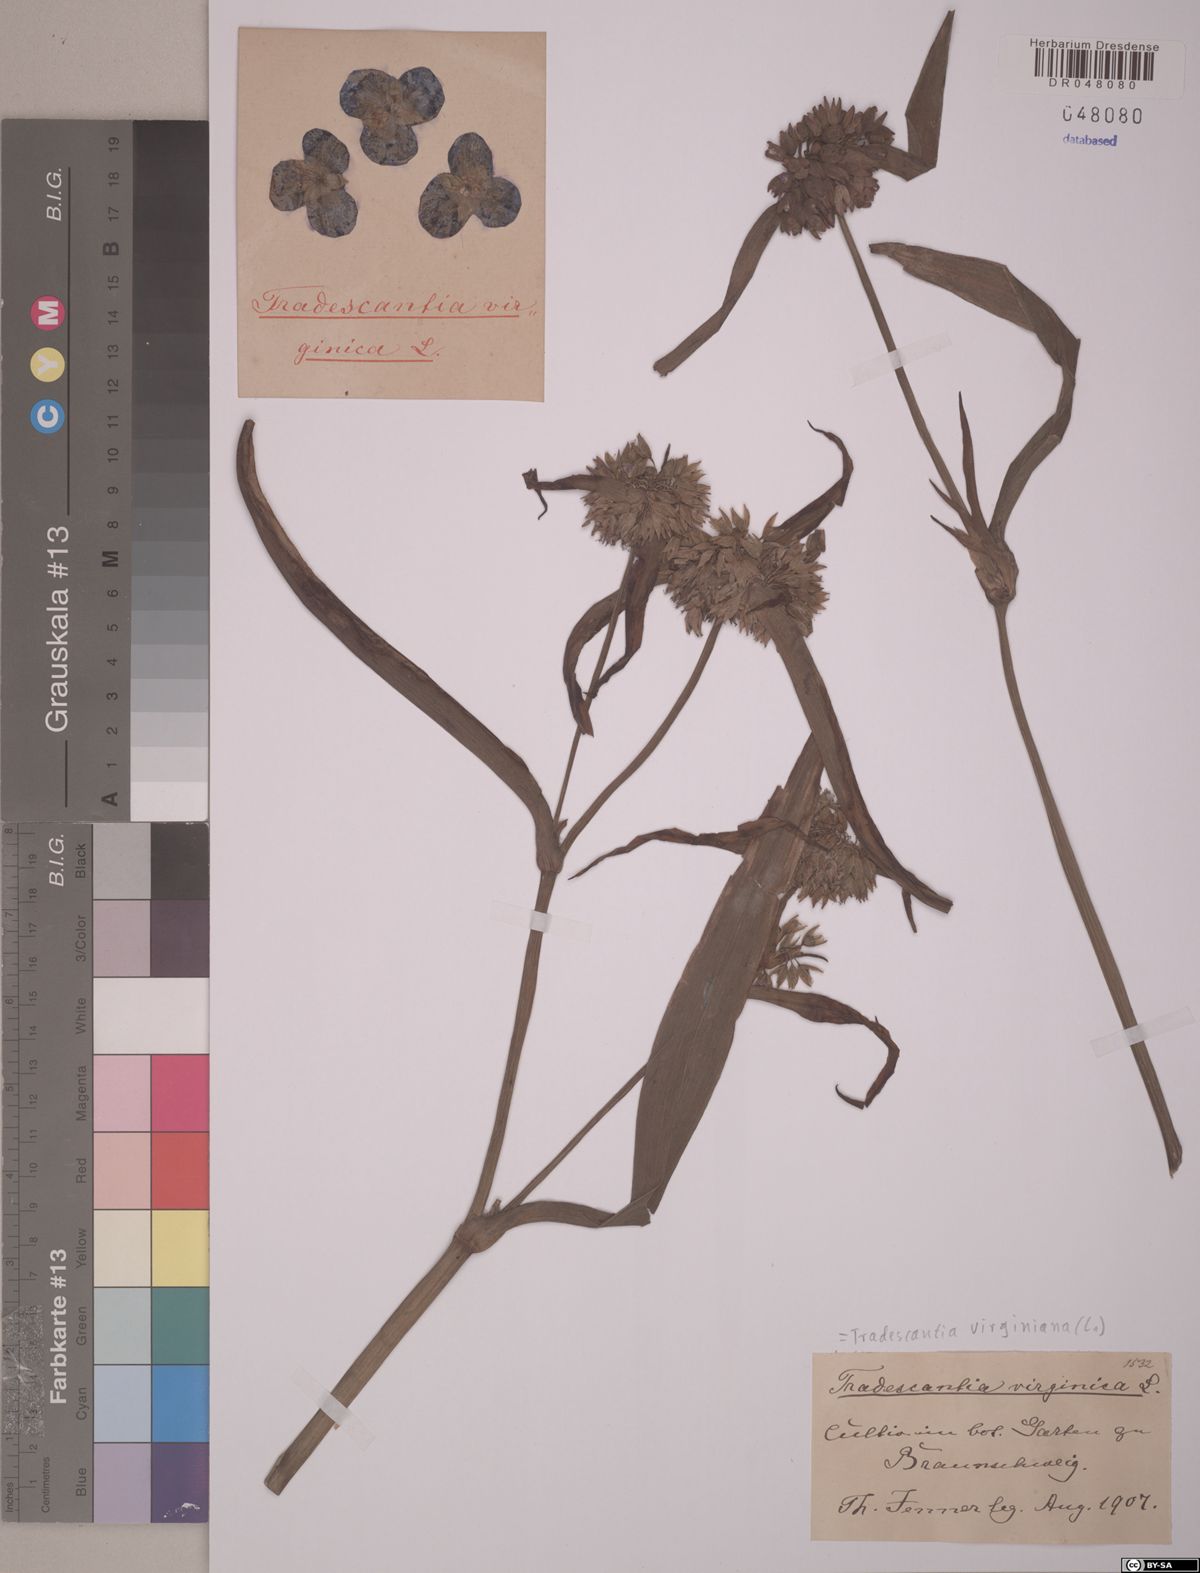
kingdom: Plantae
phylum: Tracheophyta
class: Liliopsida
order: Commelinales
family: Commelinaceae
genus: Tradescantia
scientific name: Tradescantia virginiana
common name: Spiderwort
